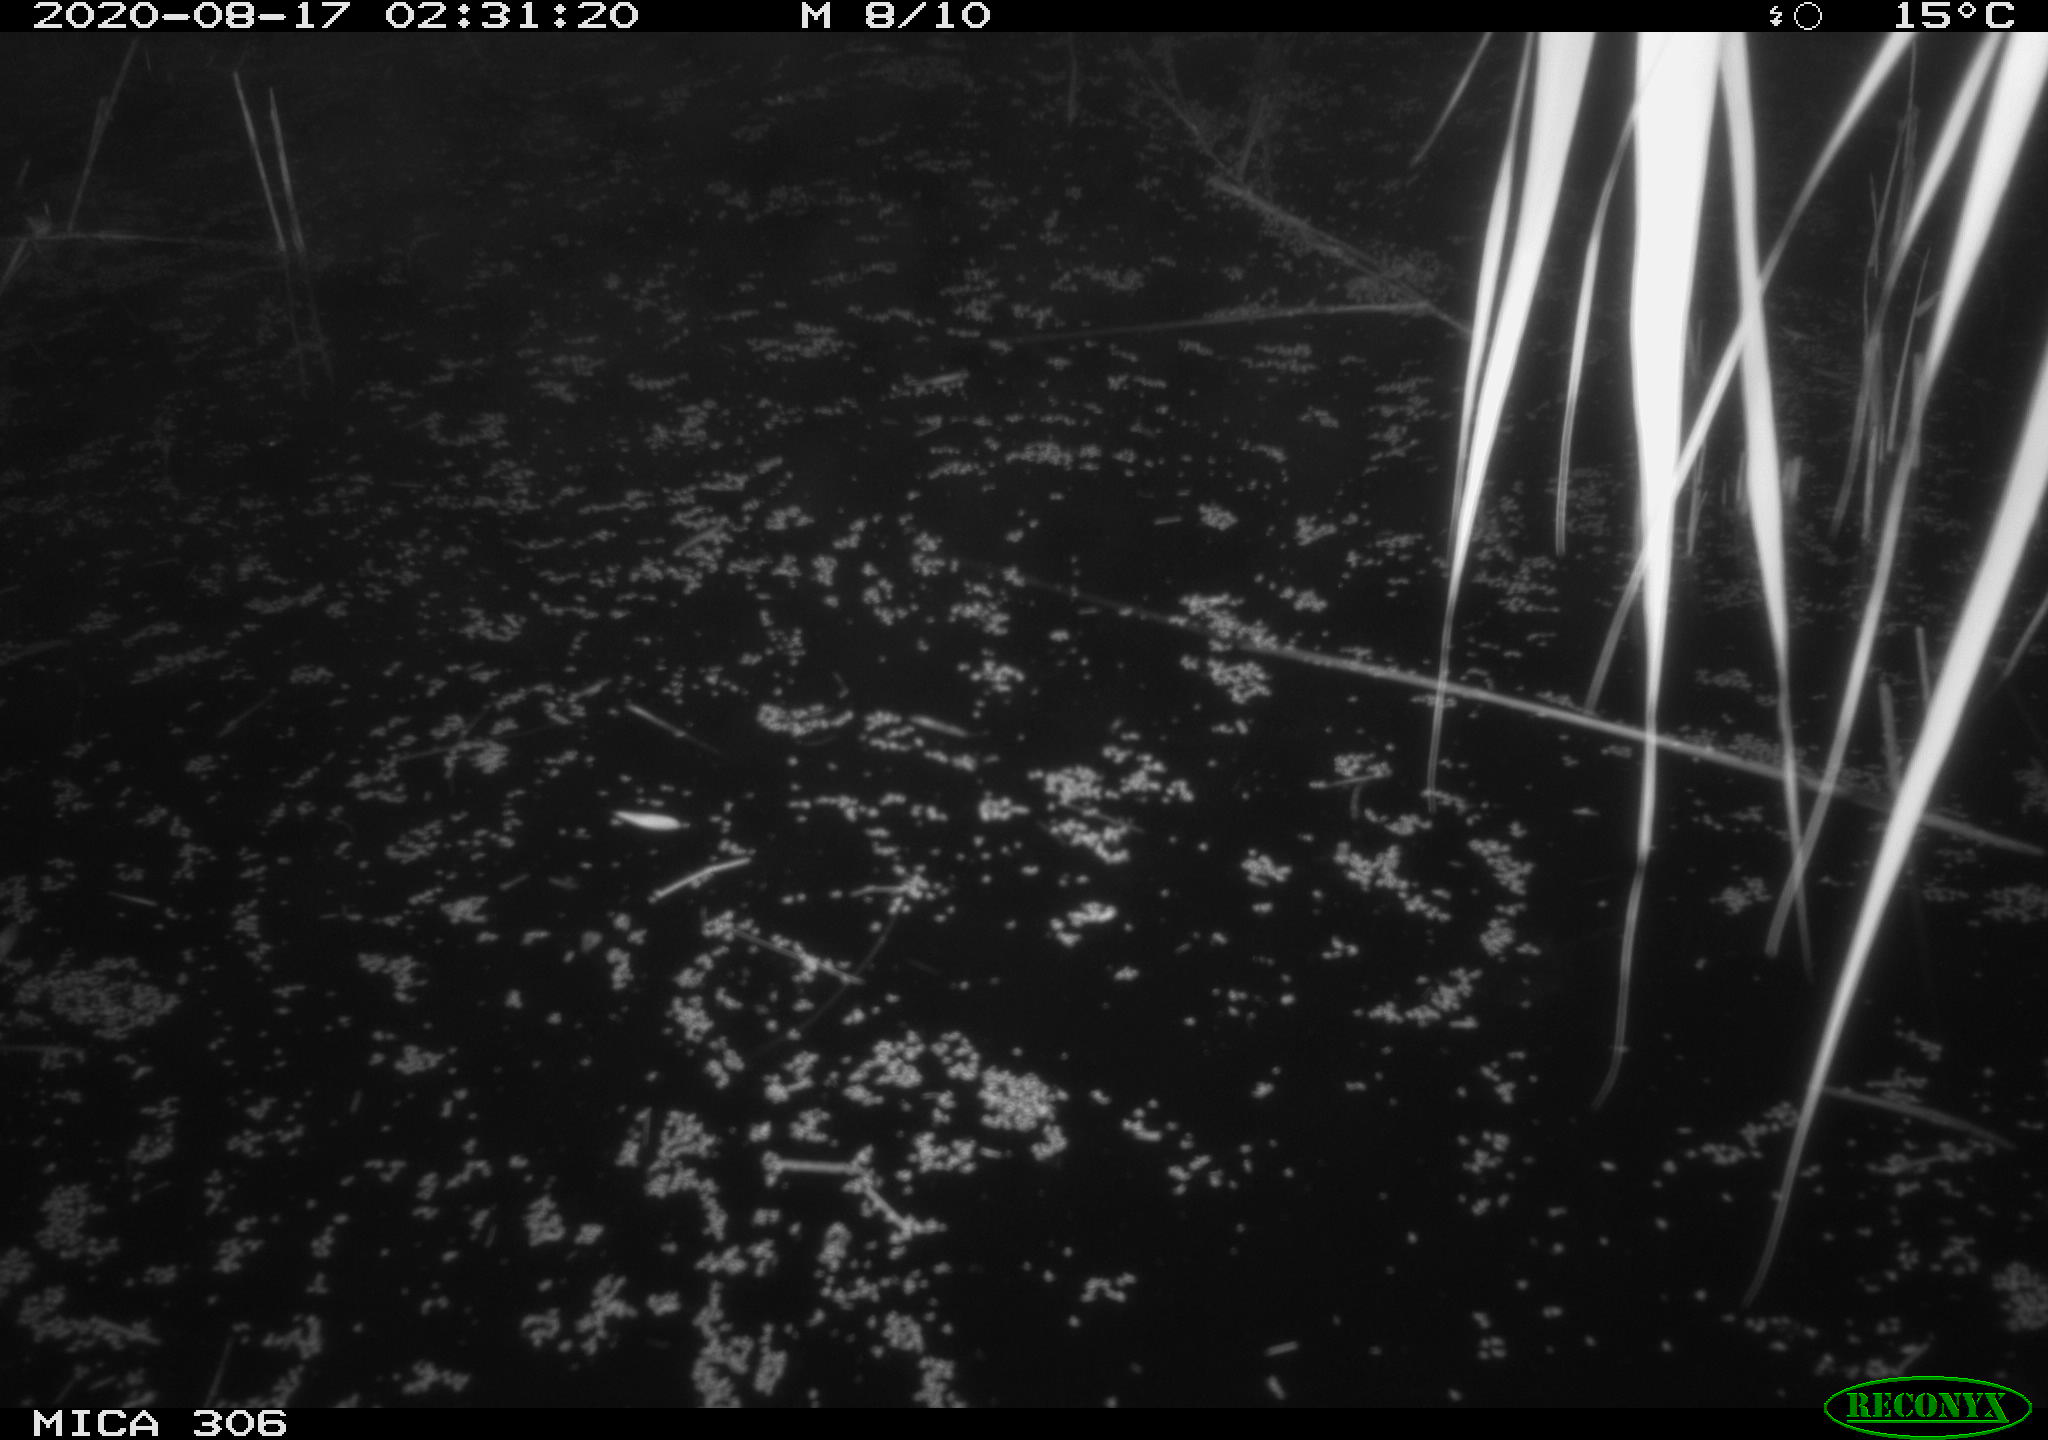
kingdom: Animalia
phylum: Chordata
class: Mammalia
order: Rodentia
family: Muridae
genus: Rattus
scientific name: Rattus norvegicus
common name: Brown rat
